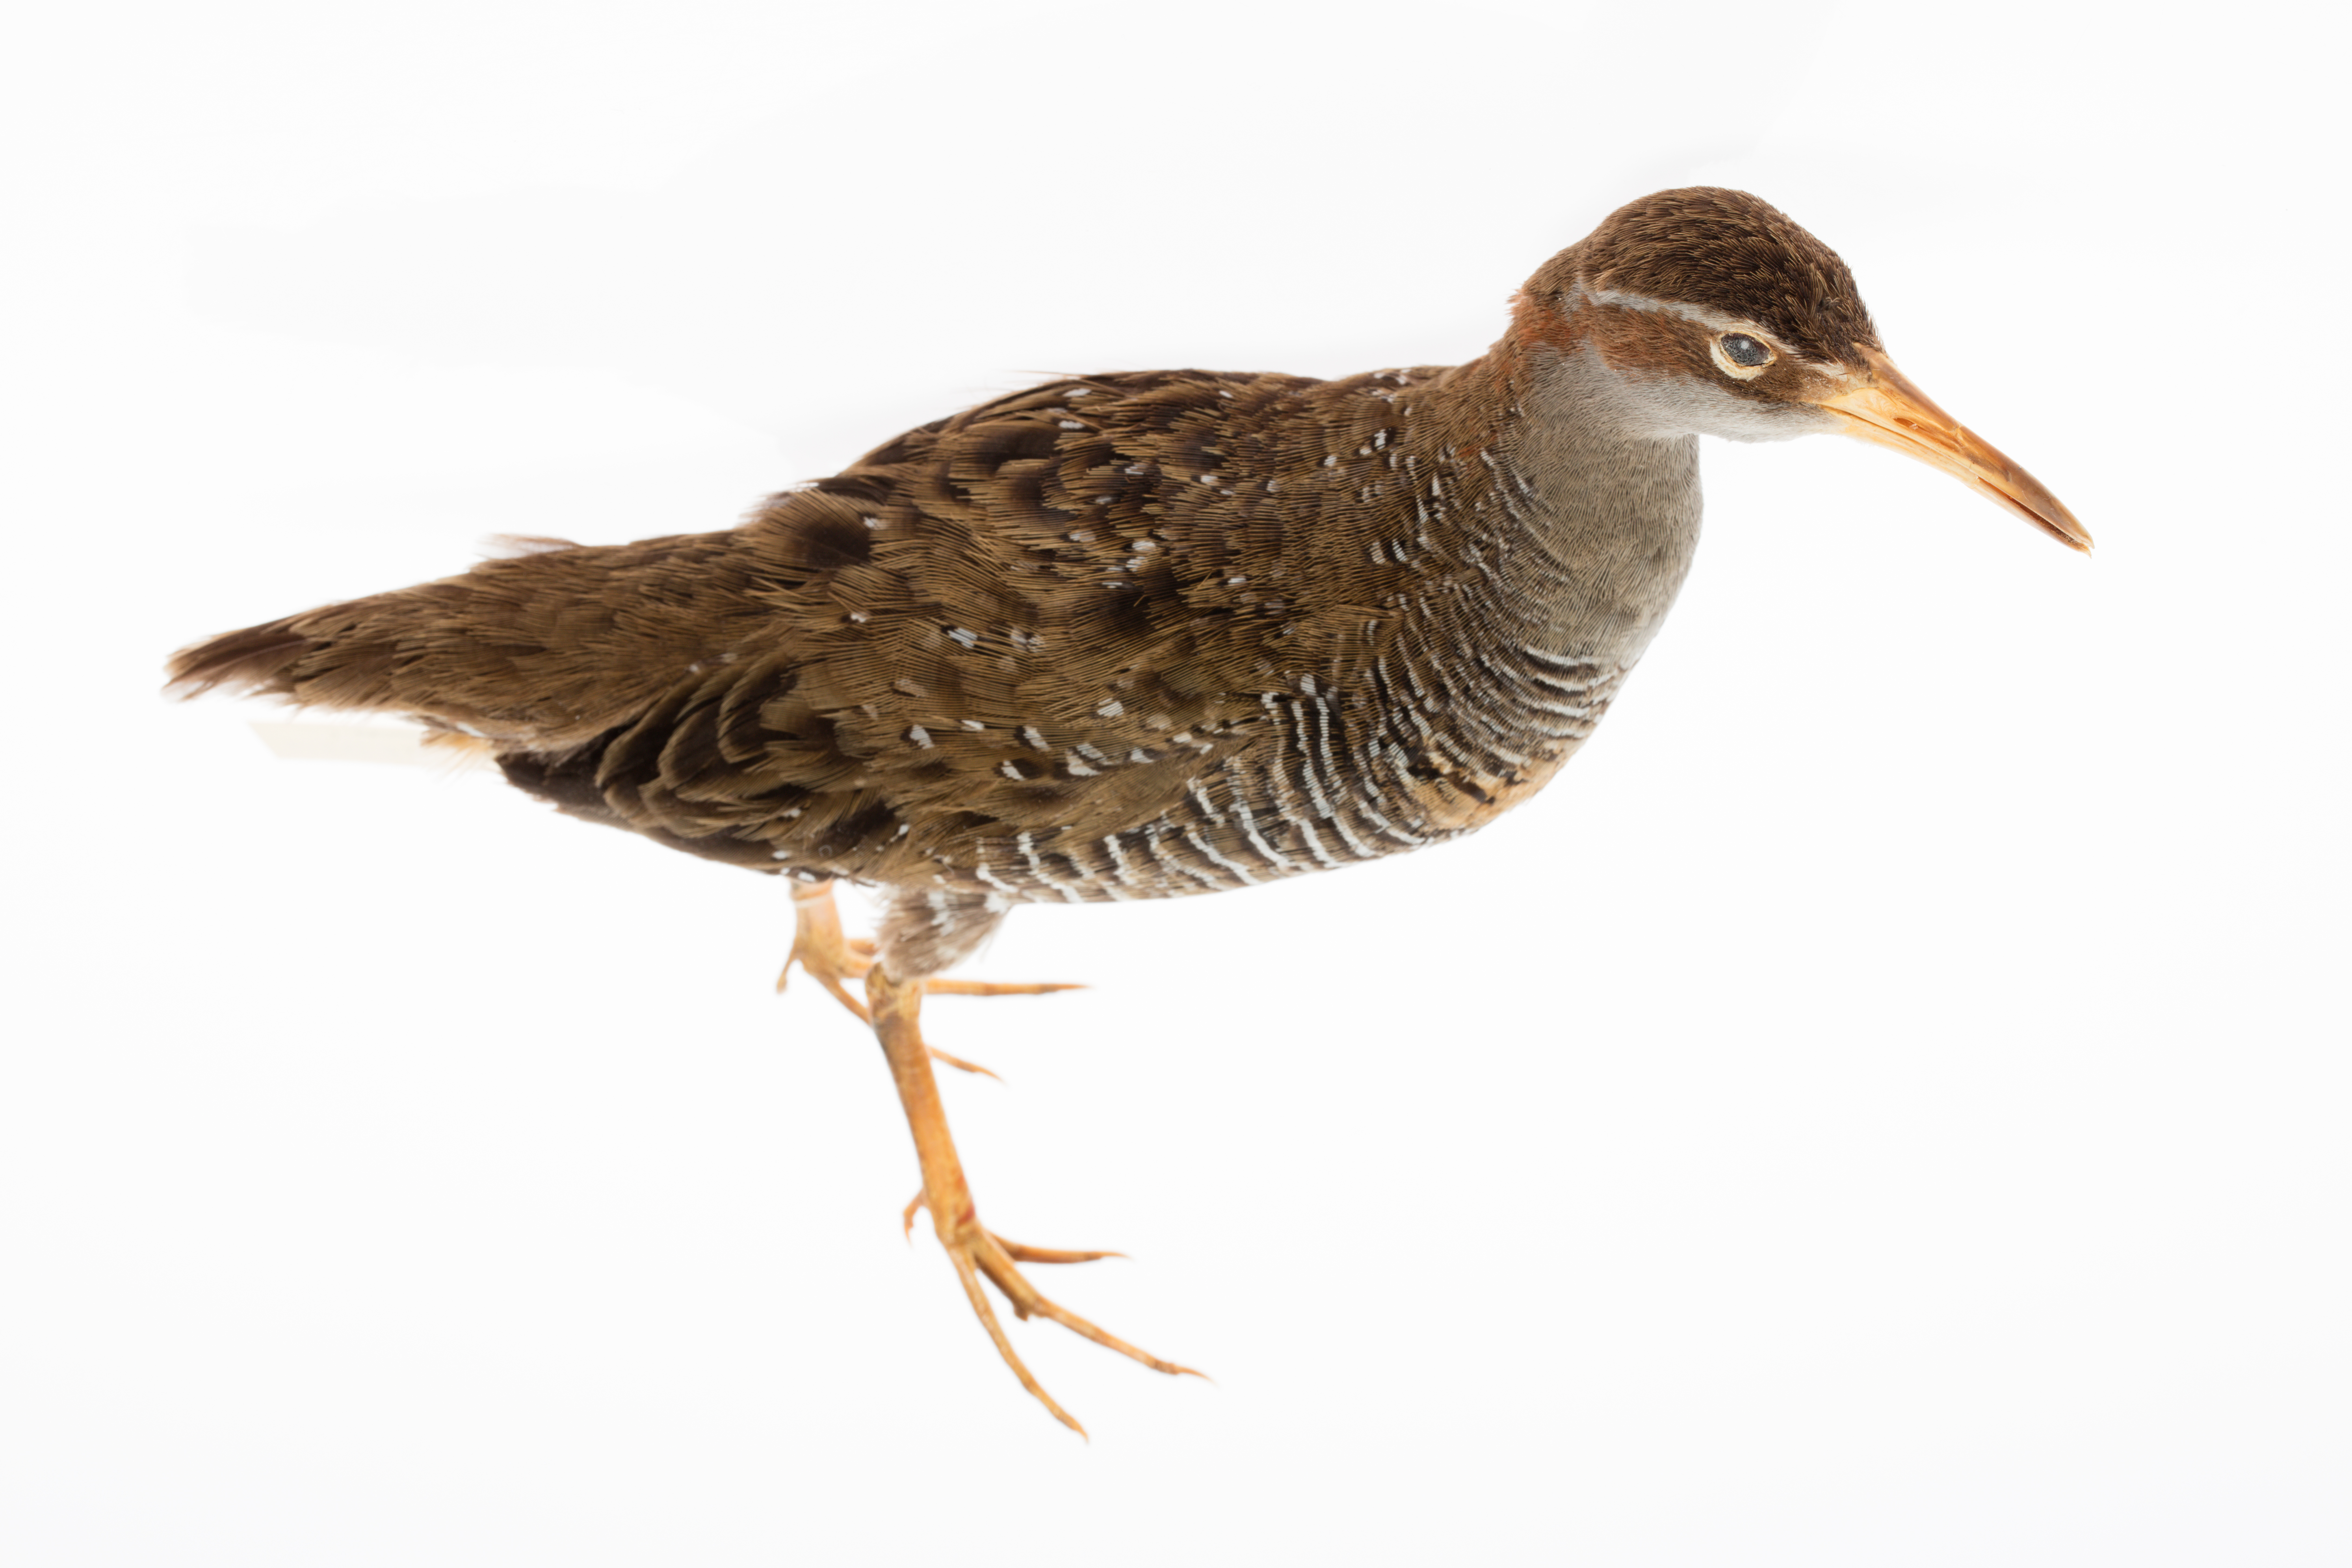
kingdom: Animalia
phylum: Chordata
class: Aves
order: Gruiformes
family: Rallidae
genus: Gallirallus
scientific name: Gallirallus philippensis
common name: Buff-banded rail
